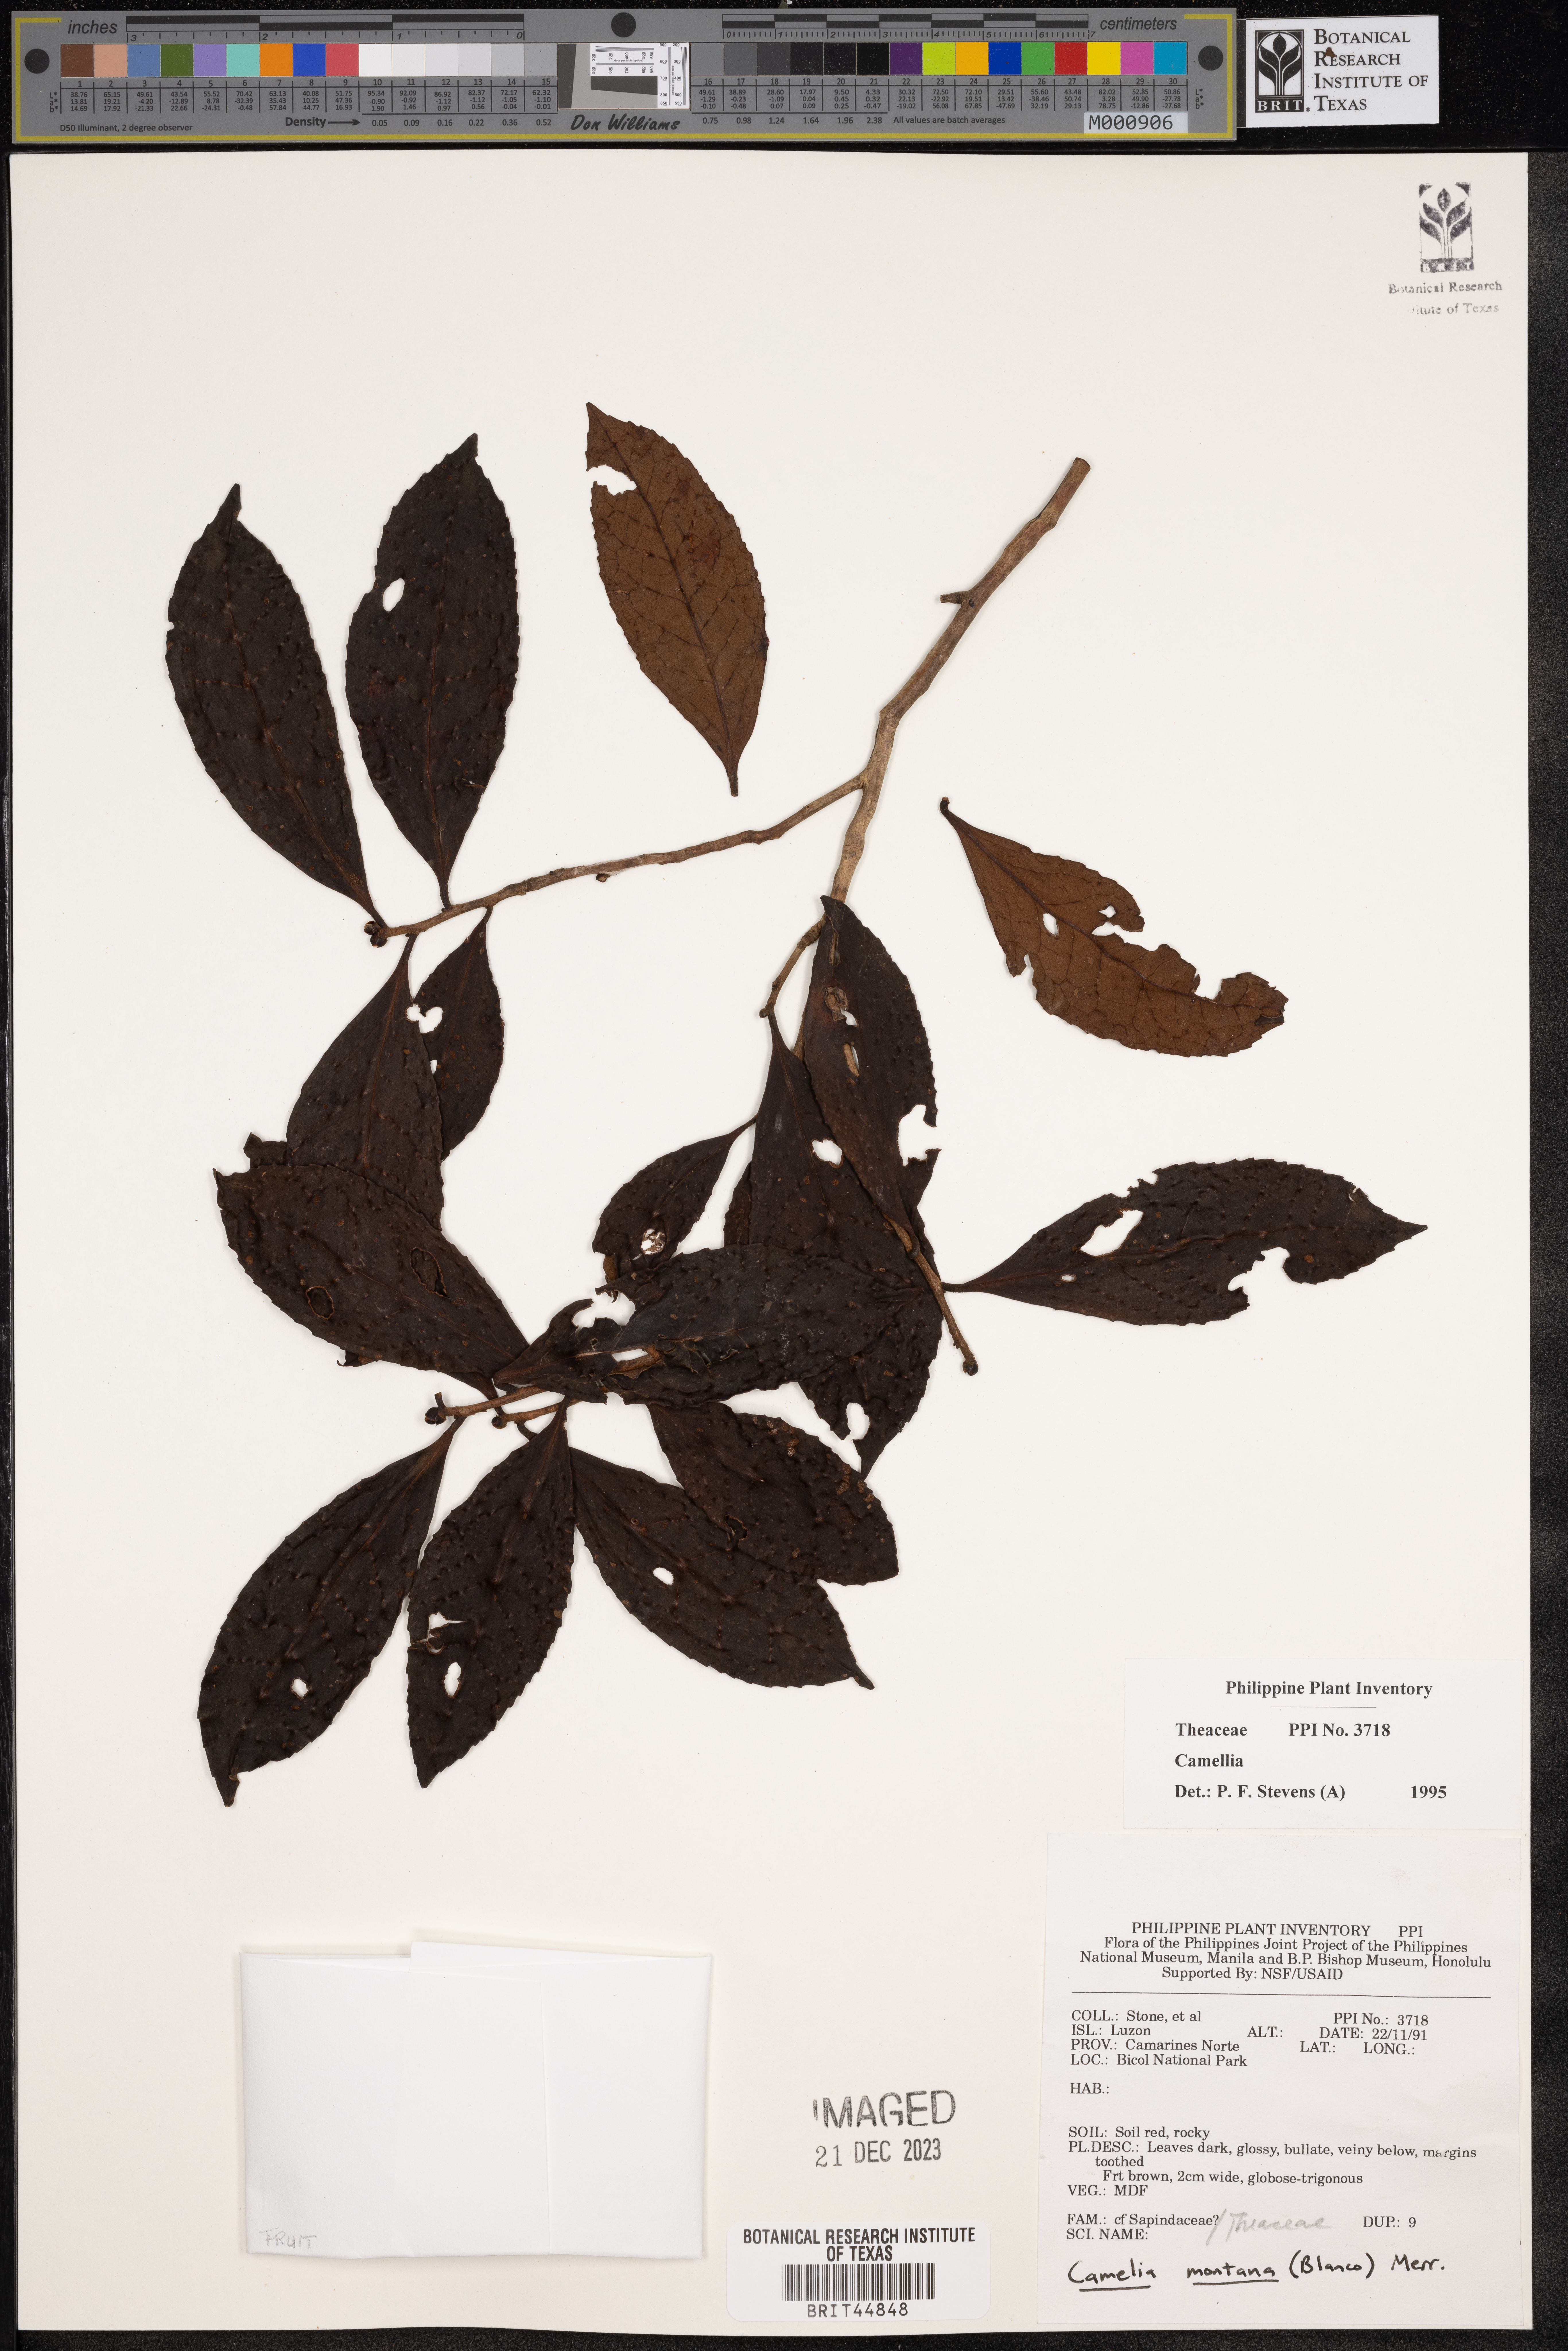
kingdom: Plantae
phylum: Tracheophyta
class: Magnoliopsida
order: Ericales
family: Theaceae
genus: Camellia
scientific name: Camellia
